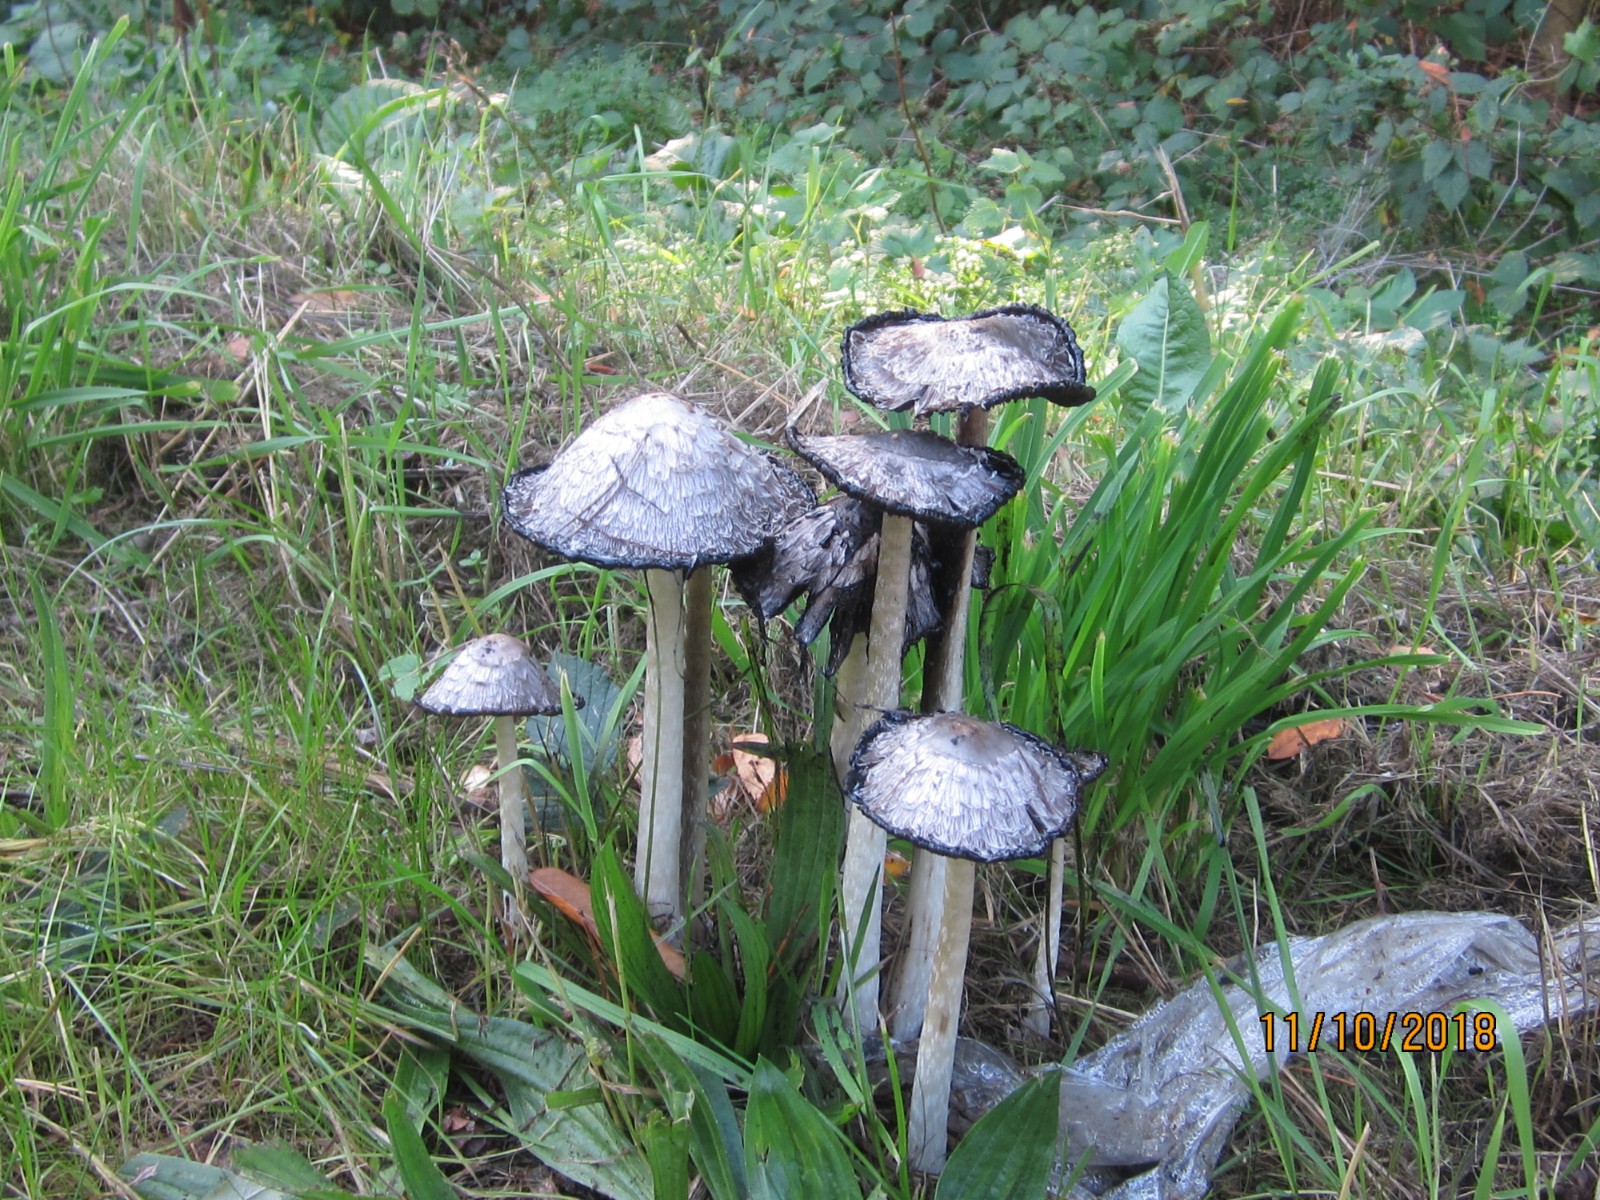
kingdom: Fungi
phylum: Basidiomycota
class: Agaricomycetes
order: Agaricales
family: Agaricaceae
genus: Coprinus
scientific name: Coprinus comatus
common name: stor parykhat
